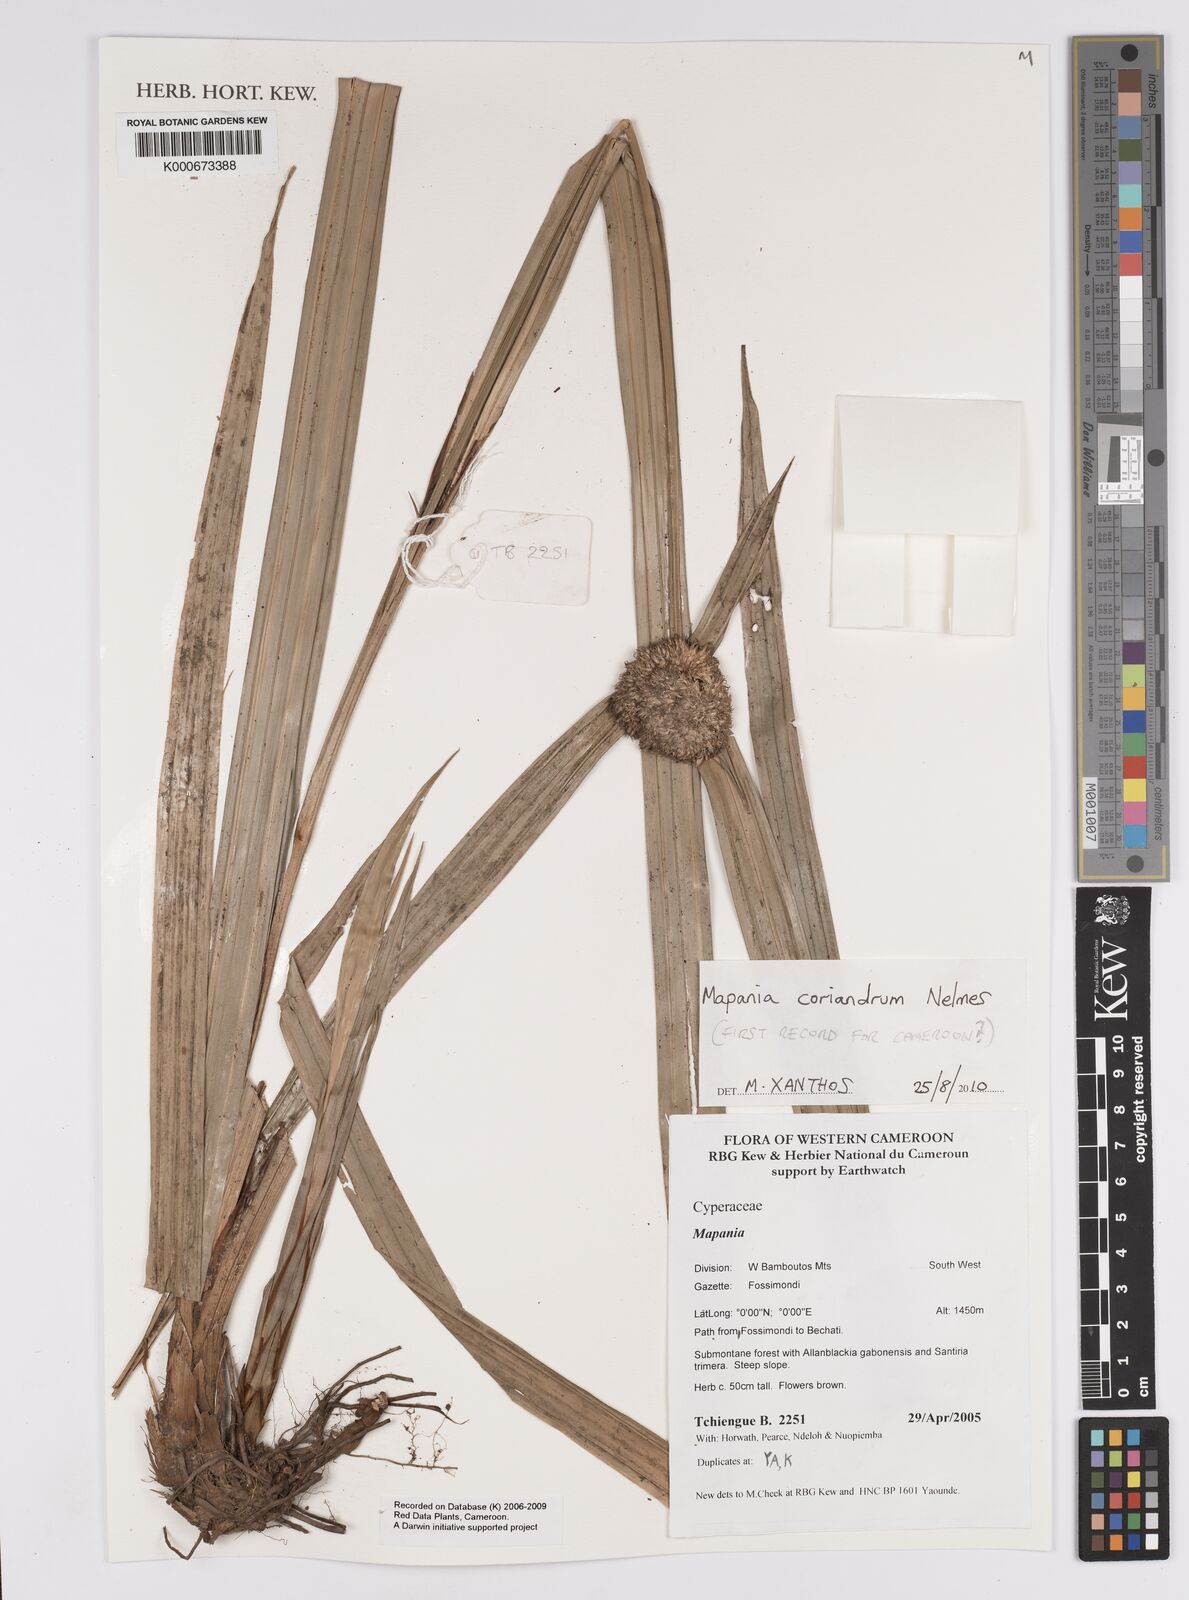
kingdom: Plantae
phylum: Tracheophyta
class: Liliopsida
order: Poales
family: Cyperaceae
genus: Mapania
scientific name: Mapania coriandrum
